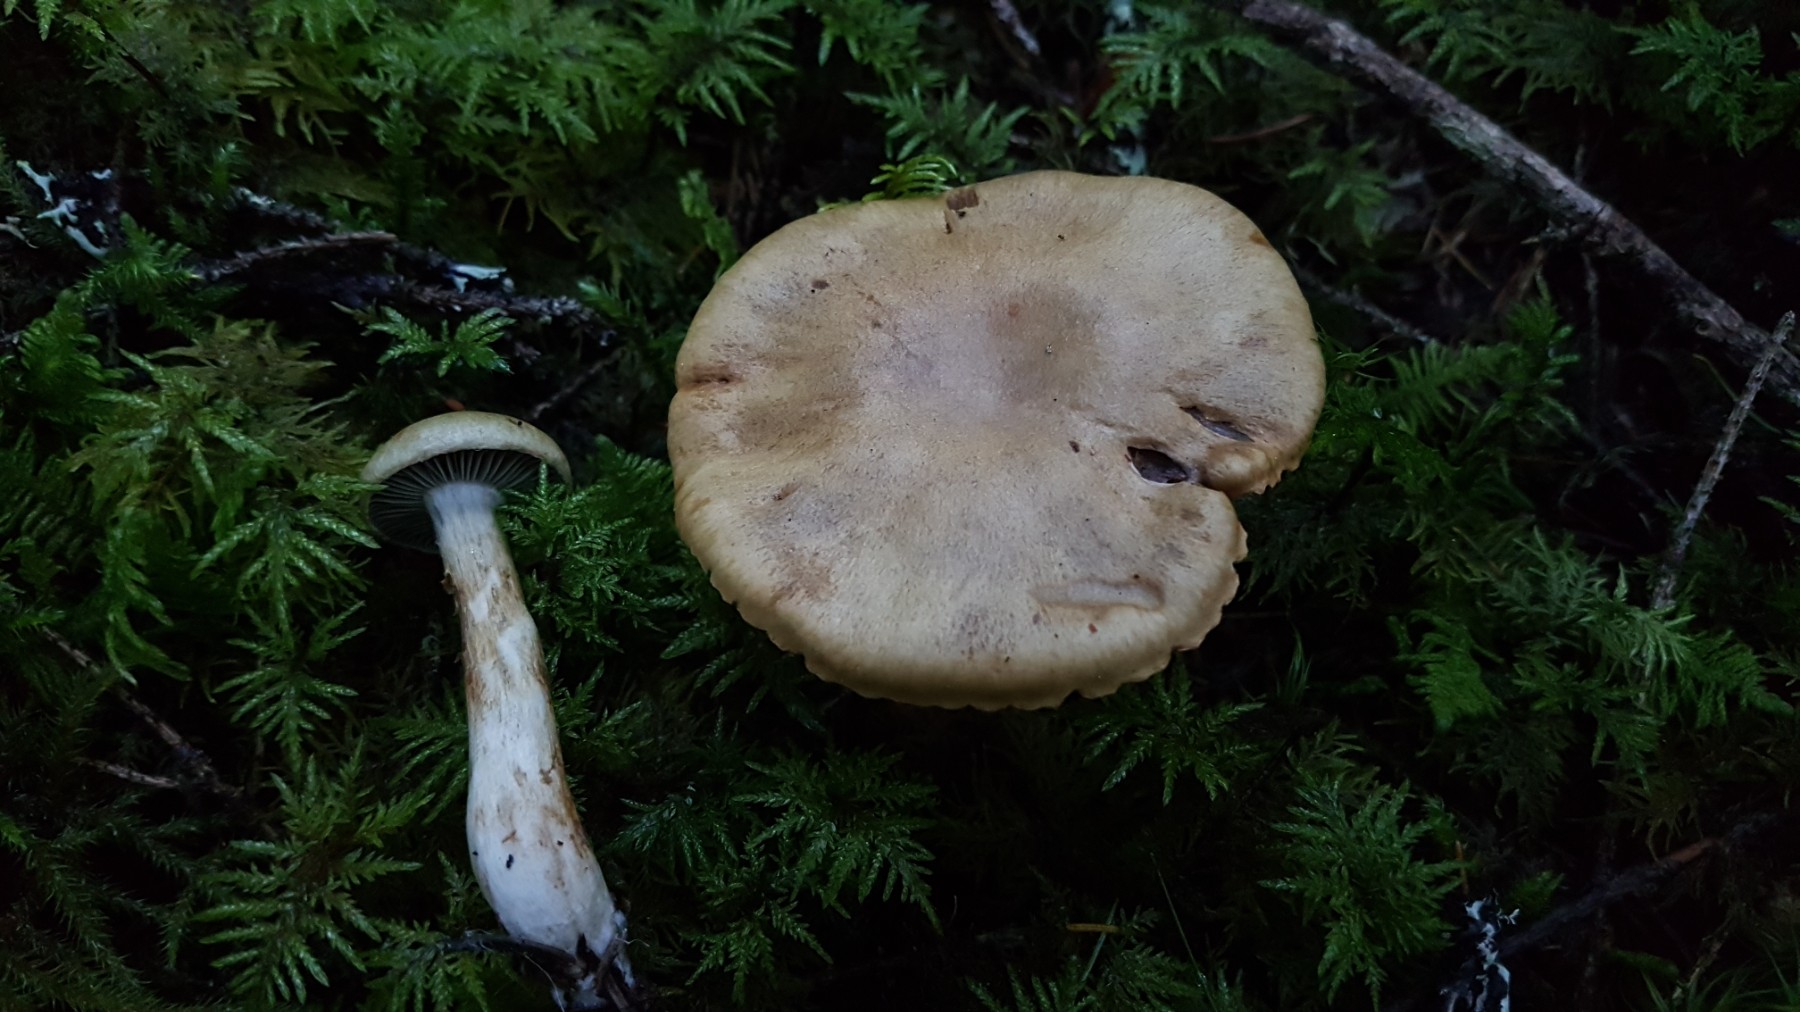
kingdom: Fungi
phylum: Basidiomycota
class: Agaricomycetes
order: Agaricales
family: Cortinariaceae
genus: Cortinarius
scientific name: Cortinarius subtortus
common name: olivengul slørhat
